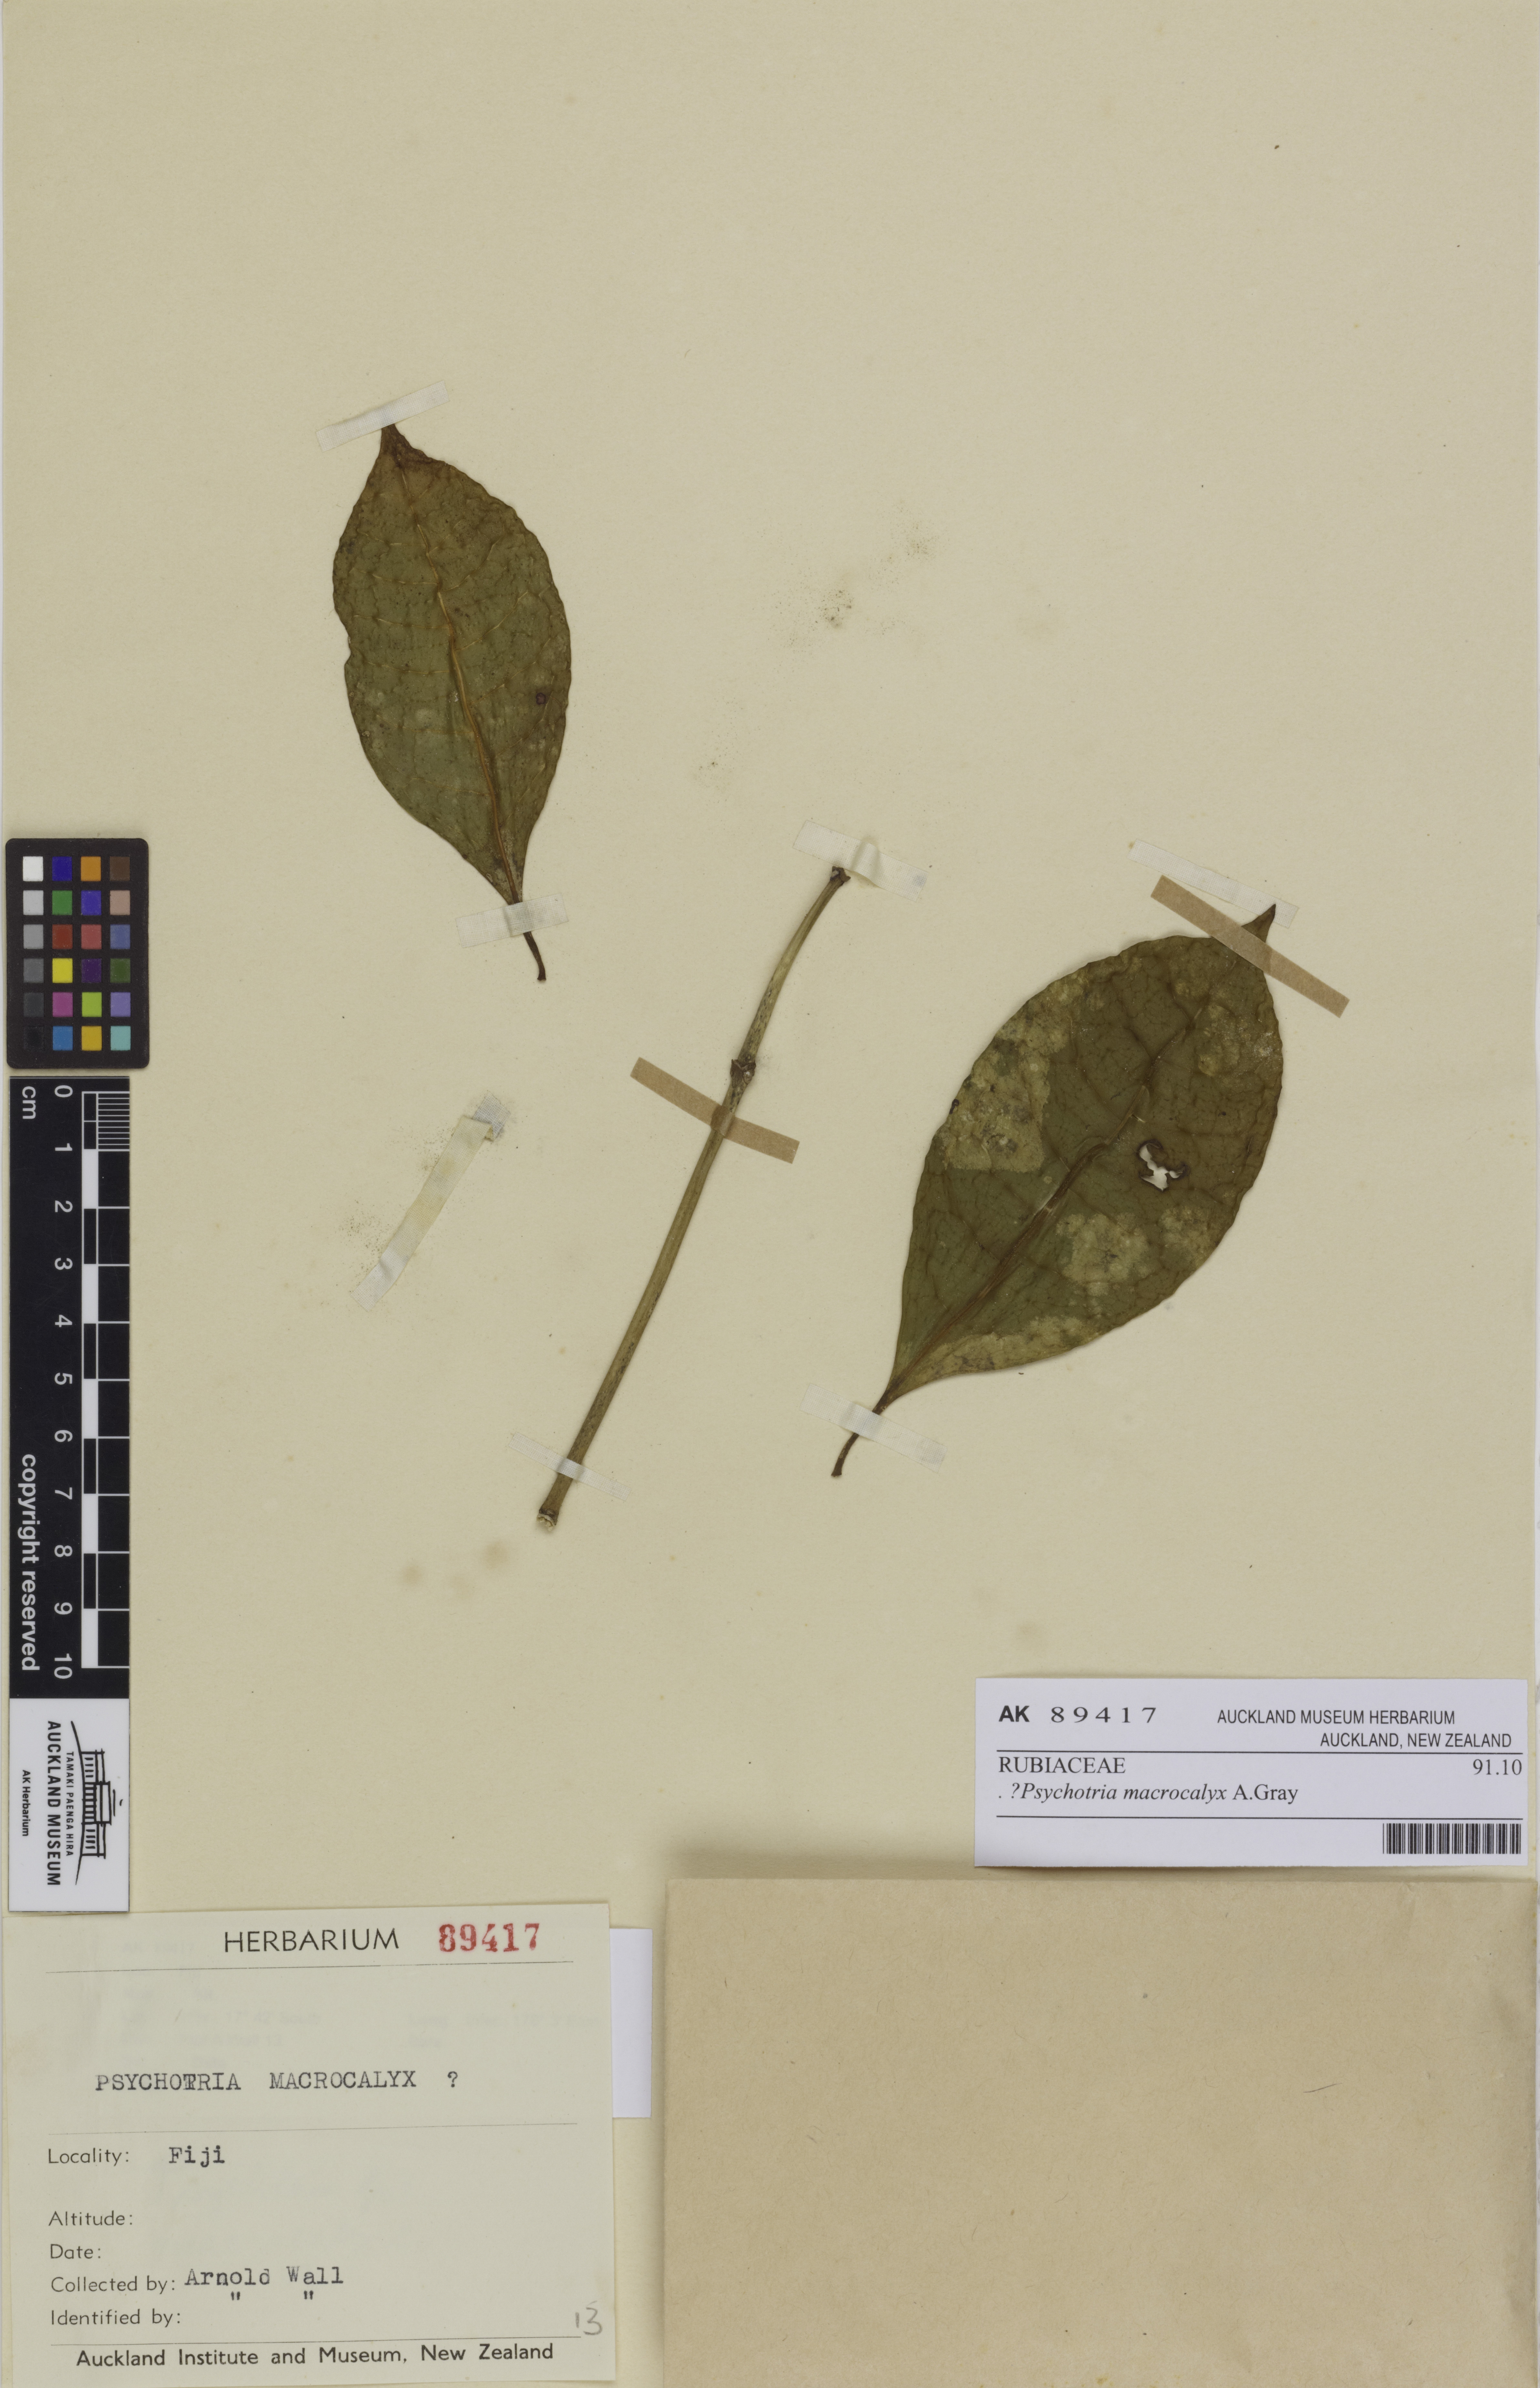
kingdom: Plantae
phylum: Tracheophyta
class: Magnoliopsida
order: Gentianales
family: Rubiaceae
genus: Psychotria
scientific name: Psychotria macrocalyx
